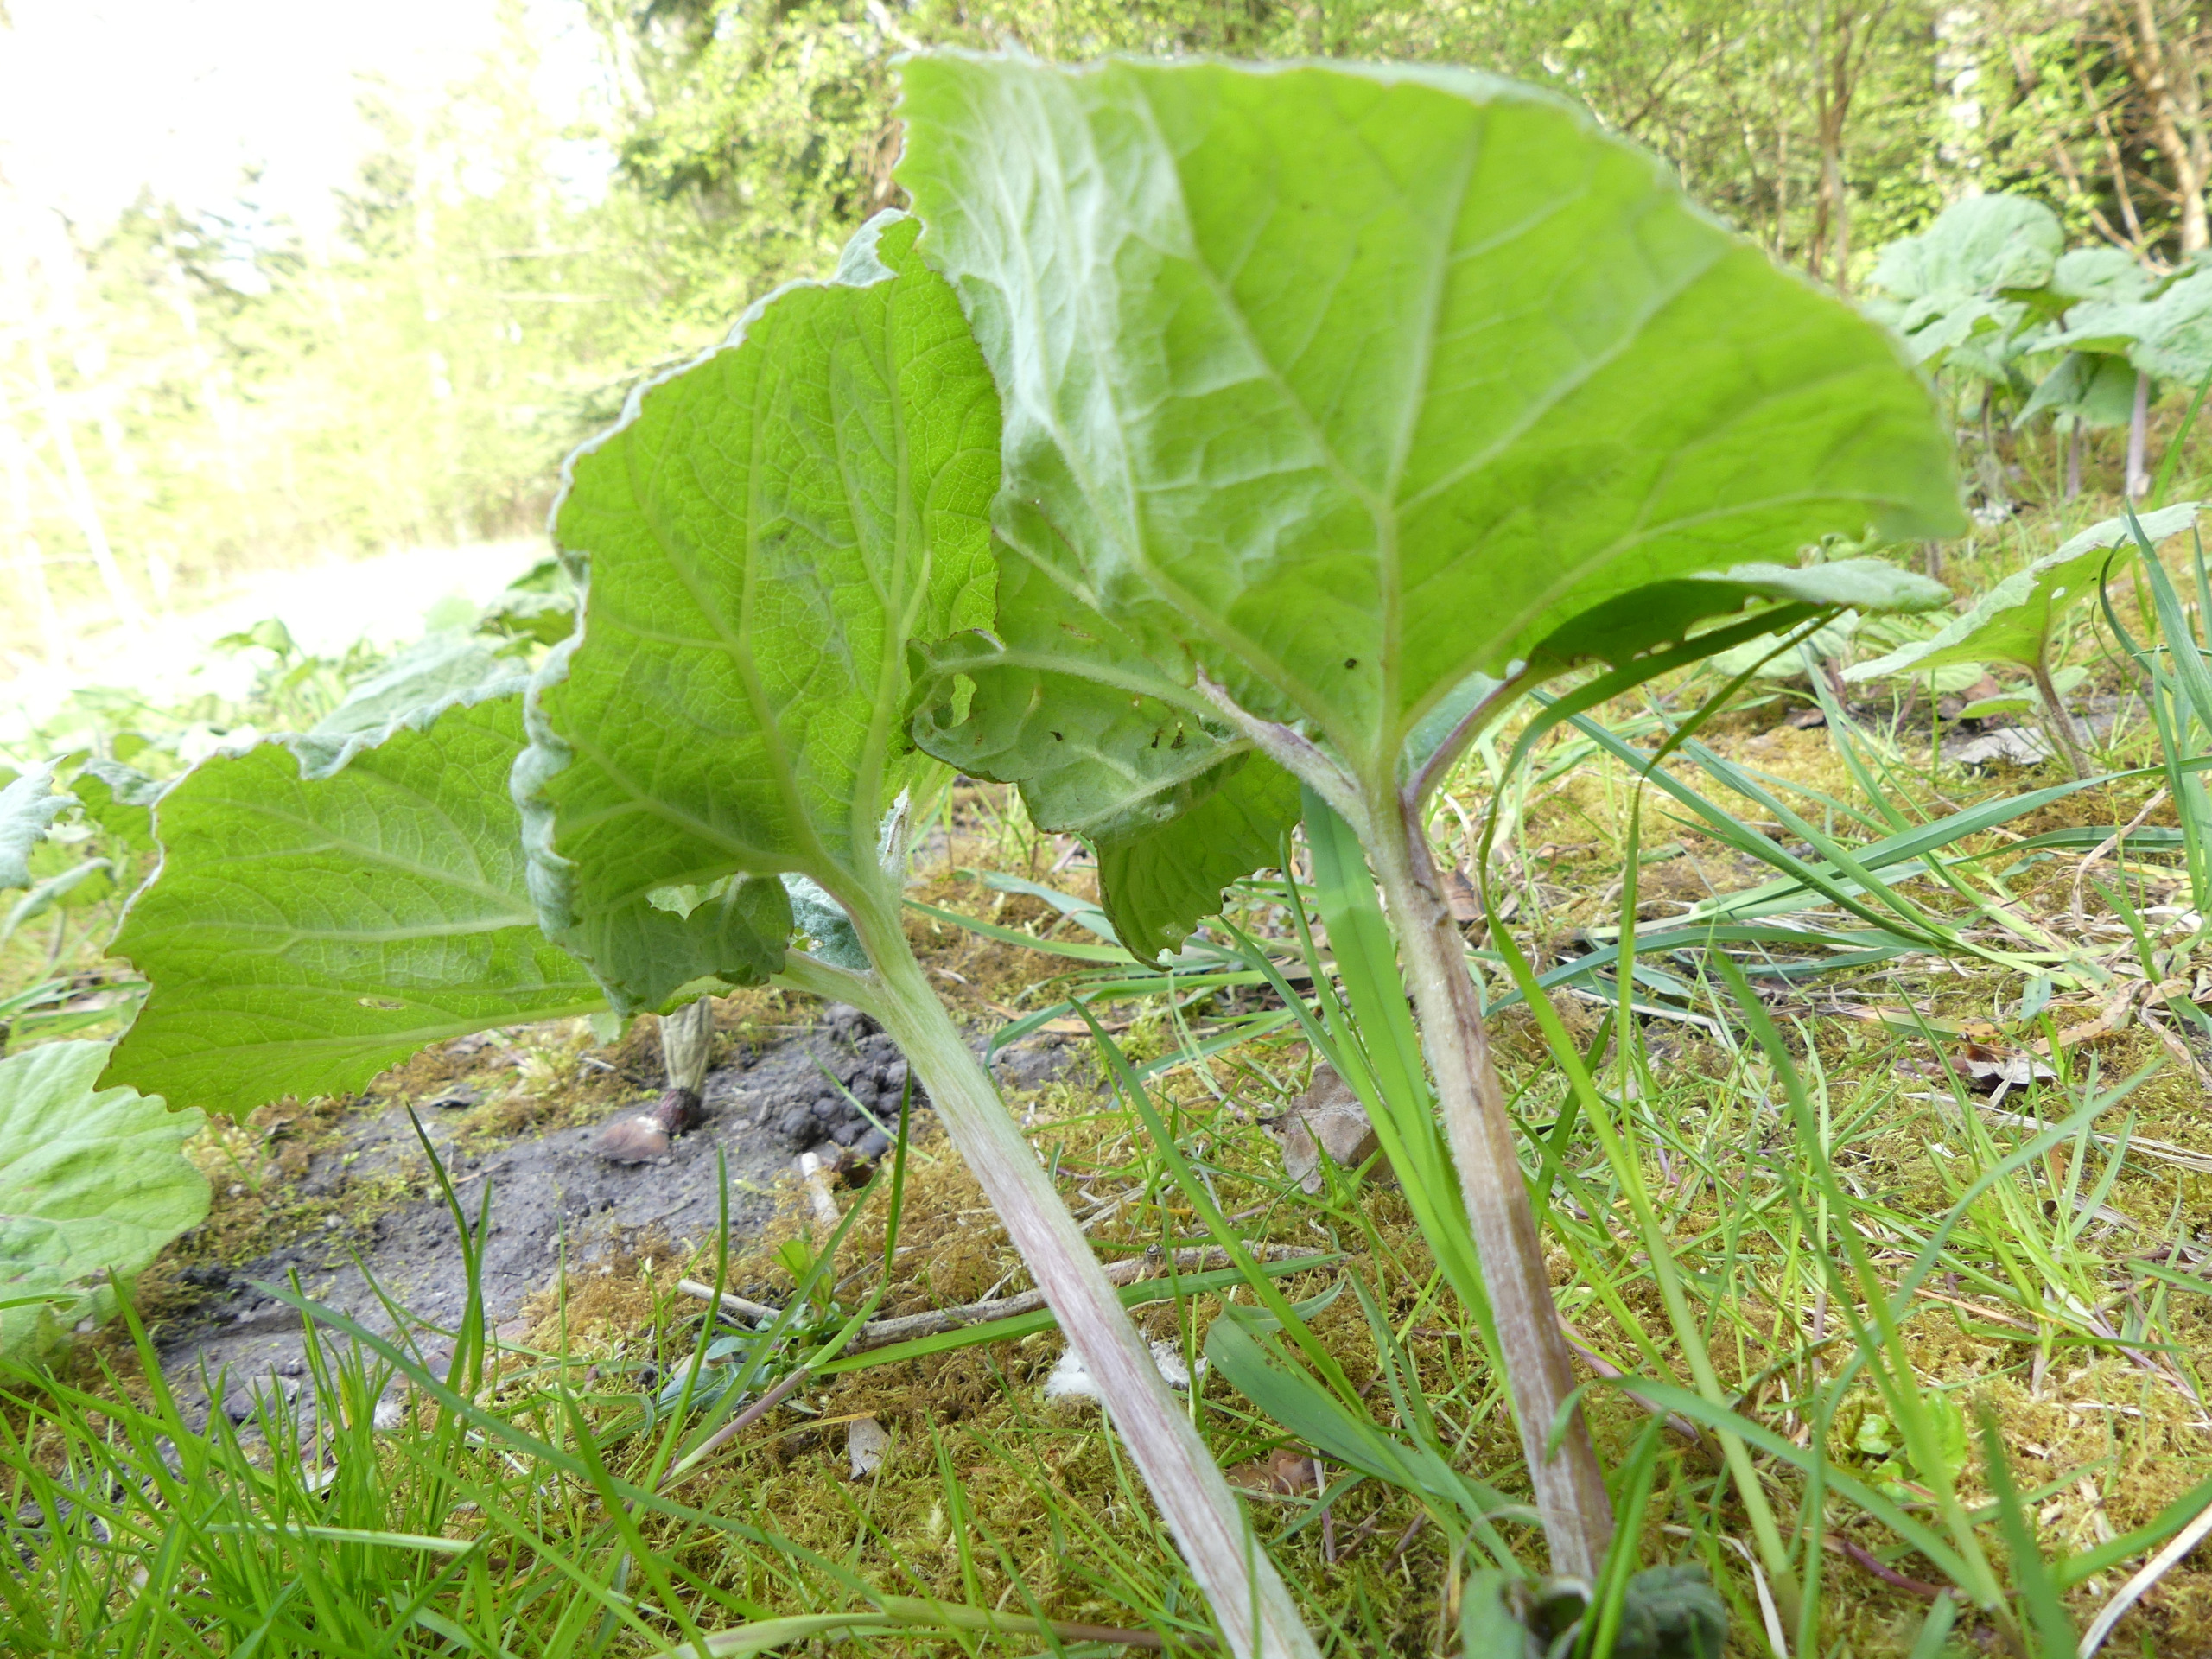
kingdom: Plantae
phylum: Tracheophyta
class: Magnoliopsida
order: Asterales
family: Asteraceae
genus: Petasites
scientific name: Petasites hybridus
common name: Rød hestehov
